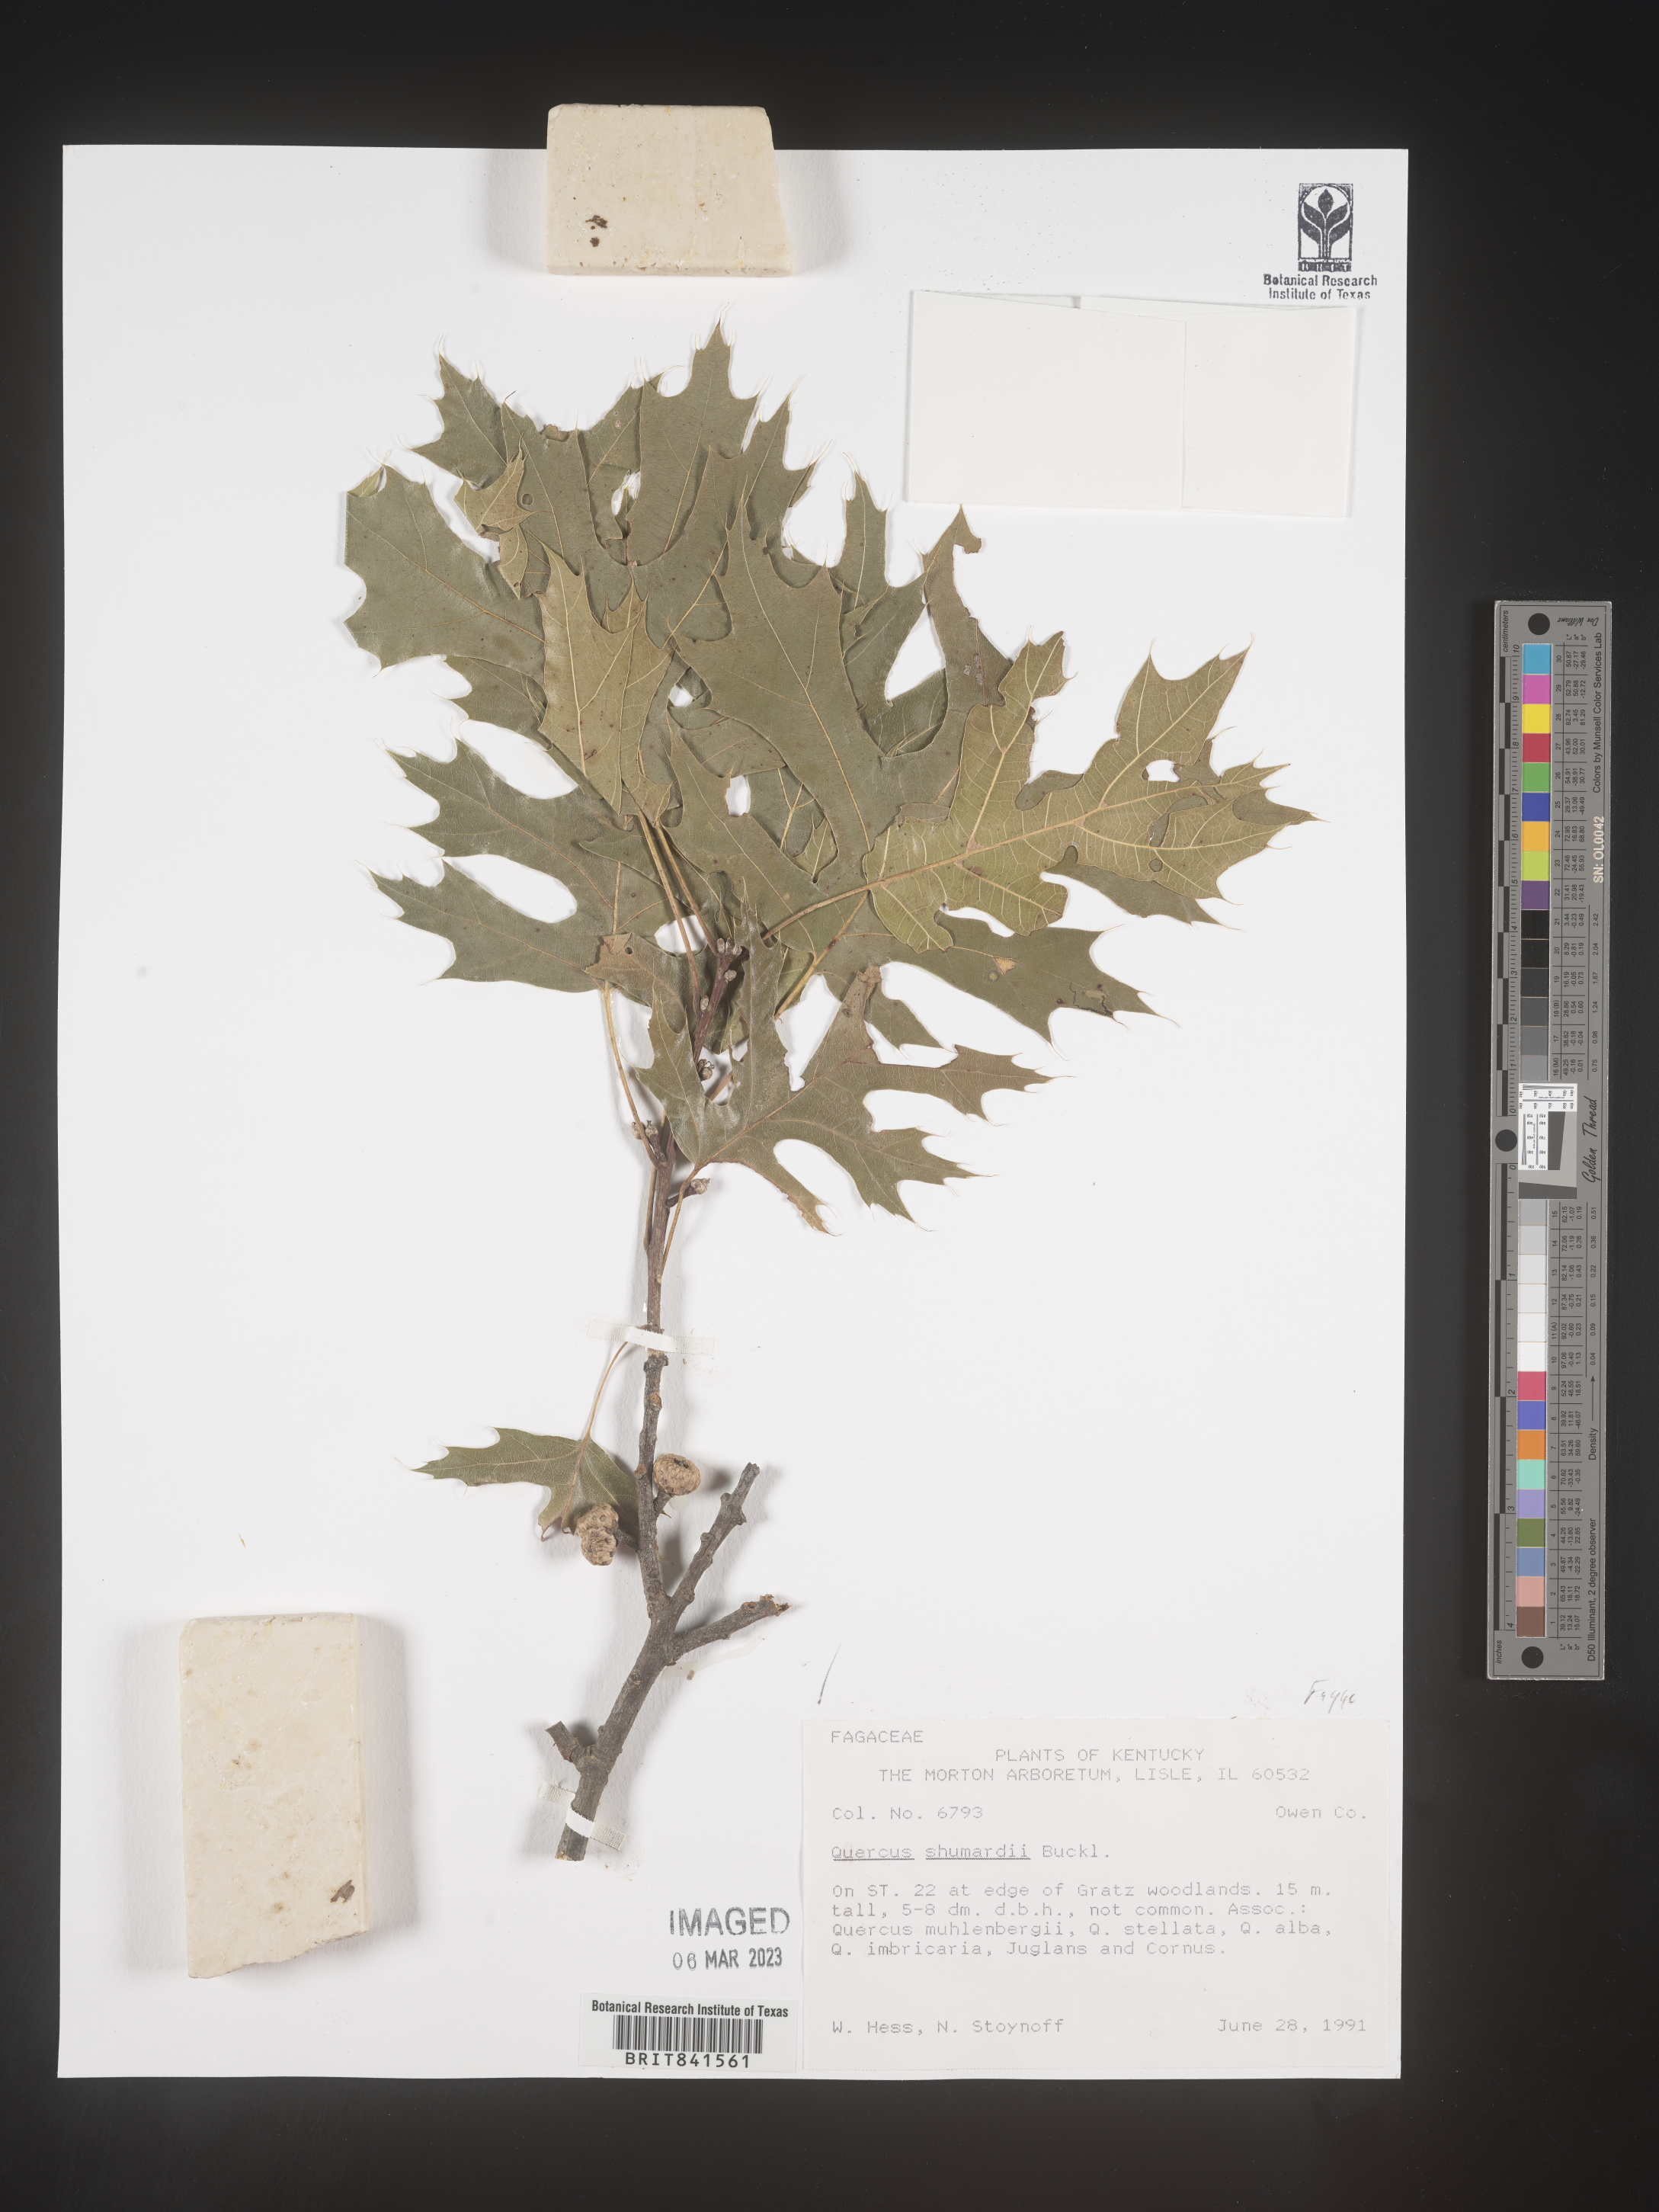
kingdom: Plantae
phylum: Tracheophyta
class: Magnoliopsida
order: Fagales
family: Fagaceae
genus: Quercus
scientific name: Quercus shumardii
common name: Shumard oak
